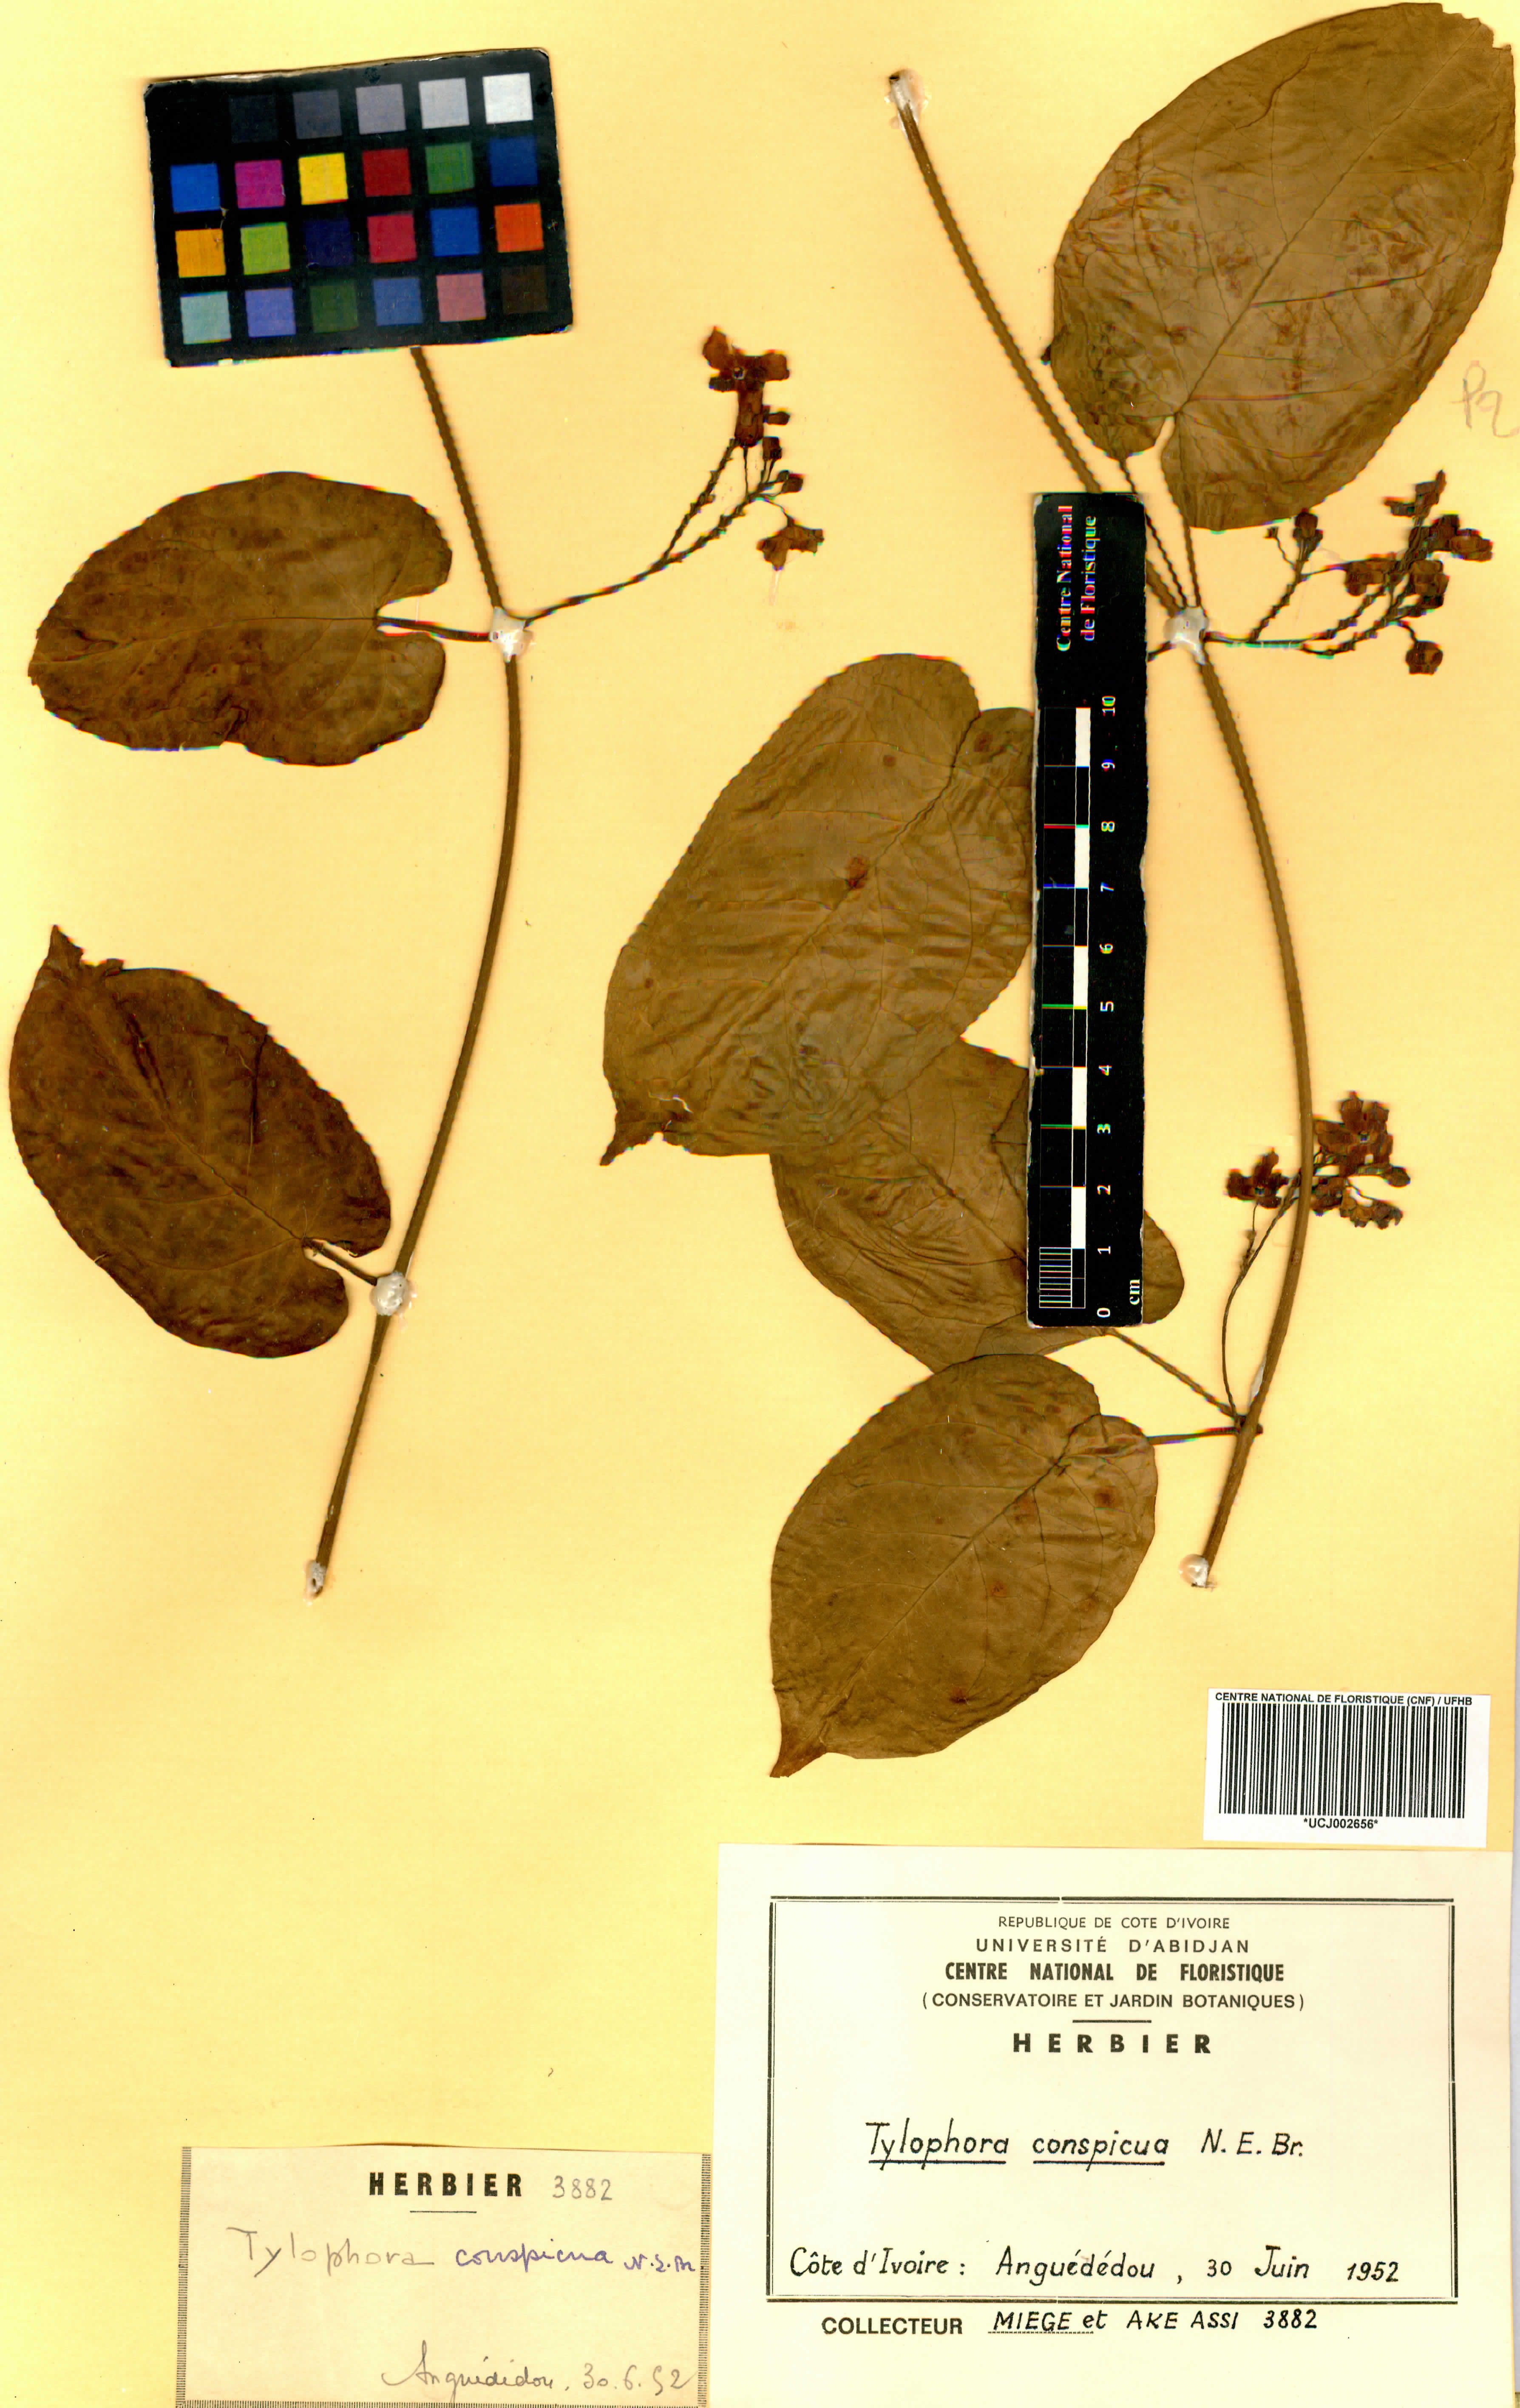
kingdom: Plantae
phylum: Tracheophyta
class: Magnoliopsida
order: Gentianales
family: Apocynaceae
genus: Vincetoxicum
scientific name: Vincetoxicum conspicuum
